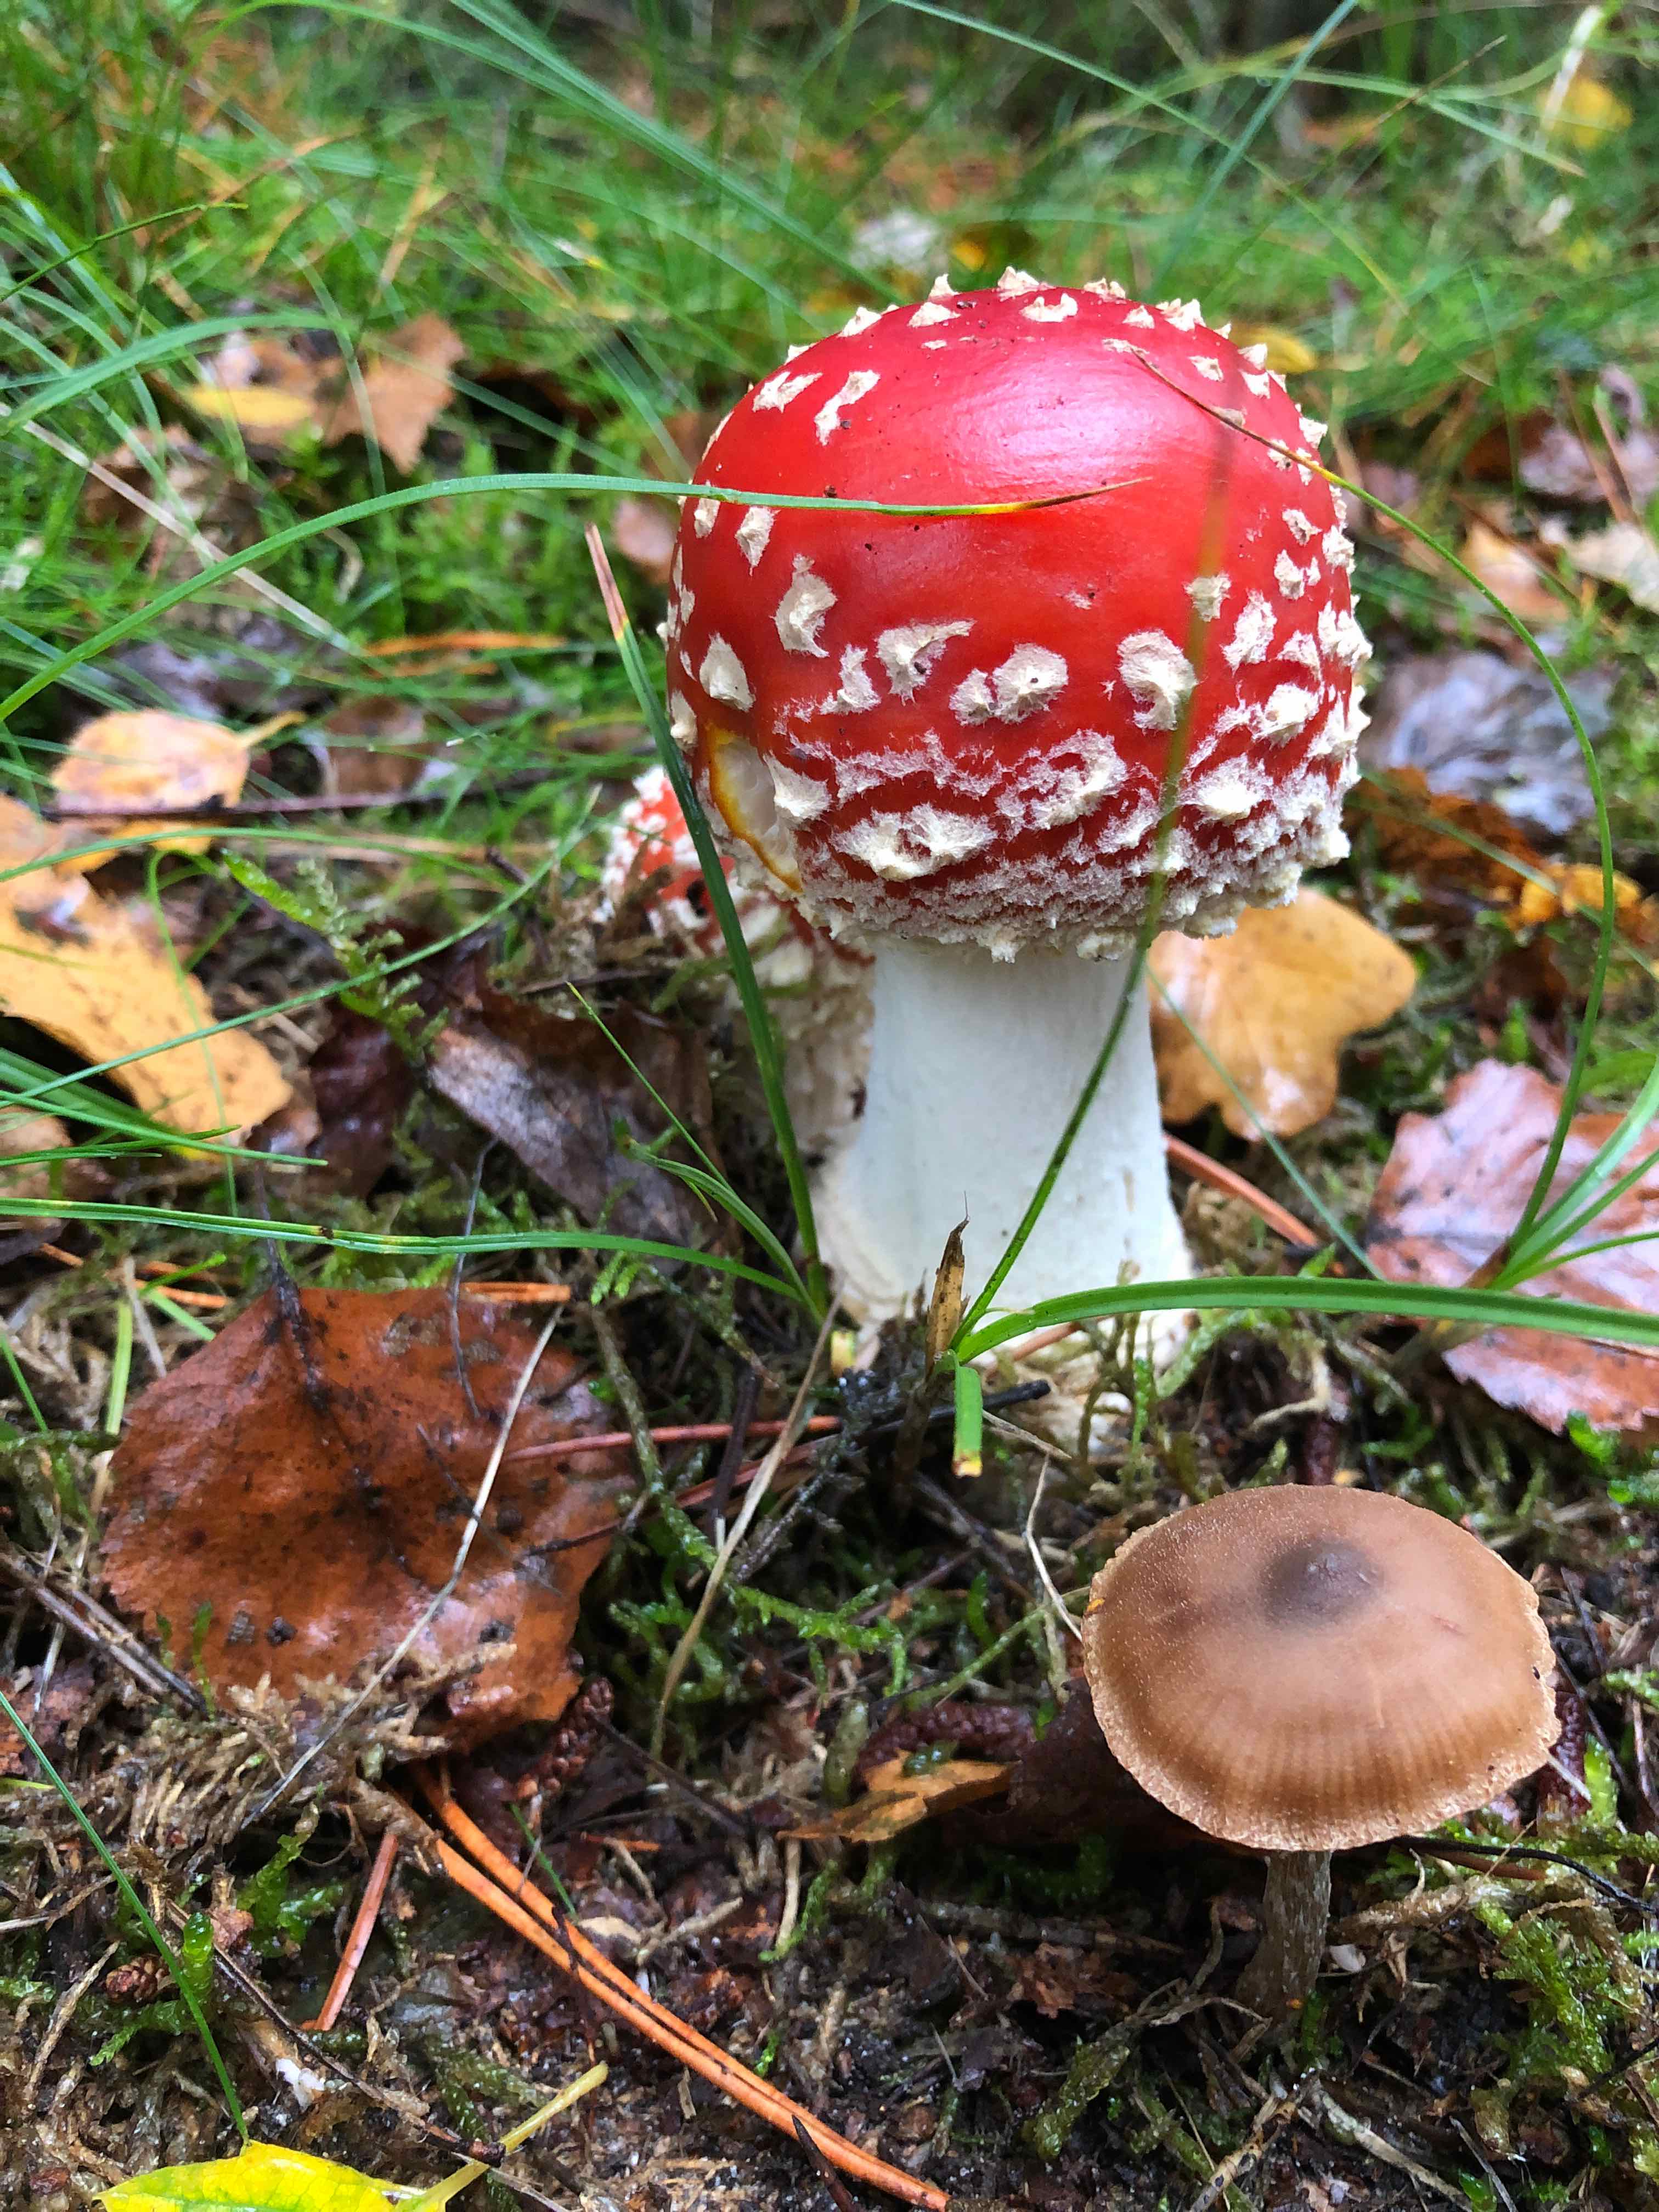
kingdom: Fungi
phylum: Basidiomycota
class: Agaricomycetes
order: Agaricales
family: Amanitaceae
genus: Amanita
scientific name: Amanita muscaria
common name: rød fluesvamp
